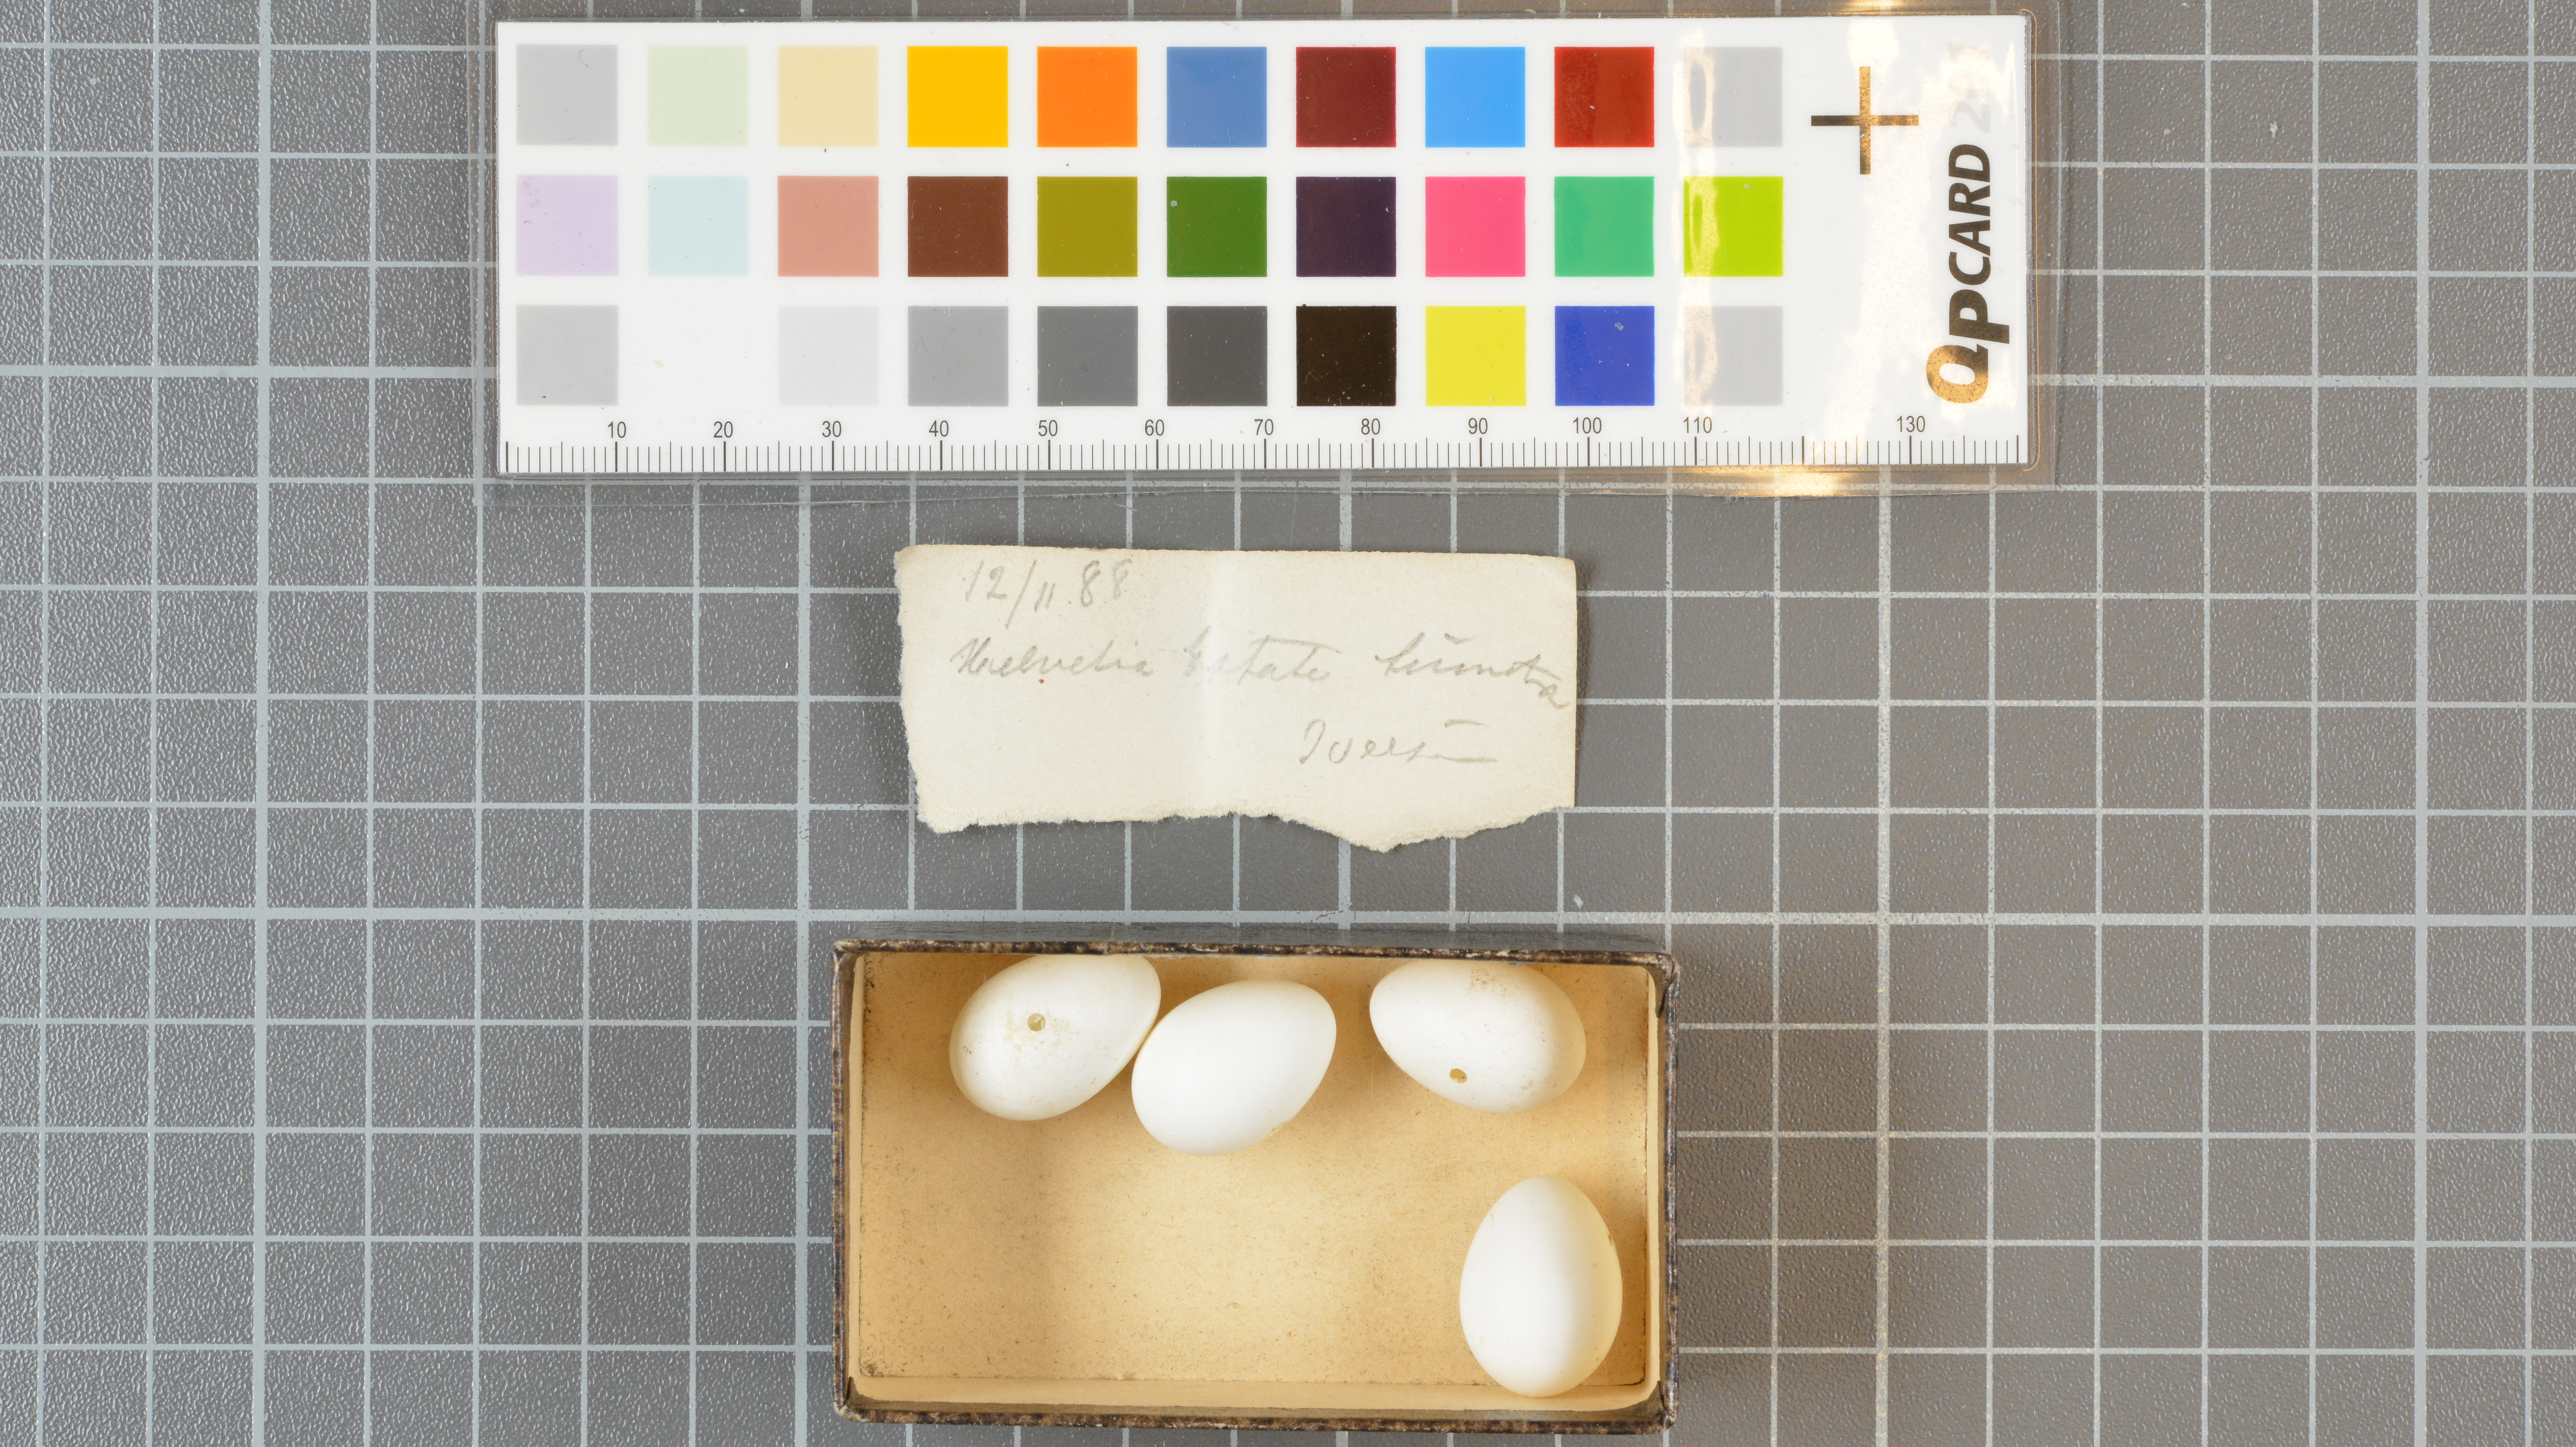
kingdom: Animalia
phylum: Chordata
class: Aves
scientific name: Aves
